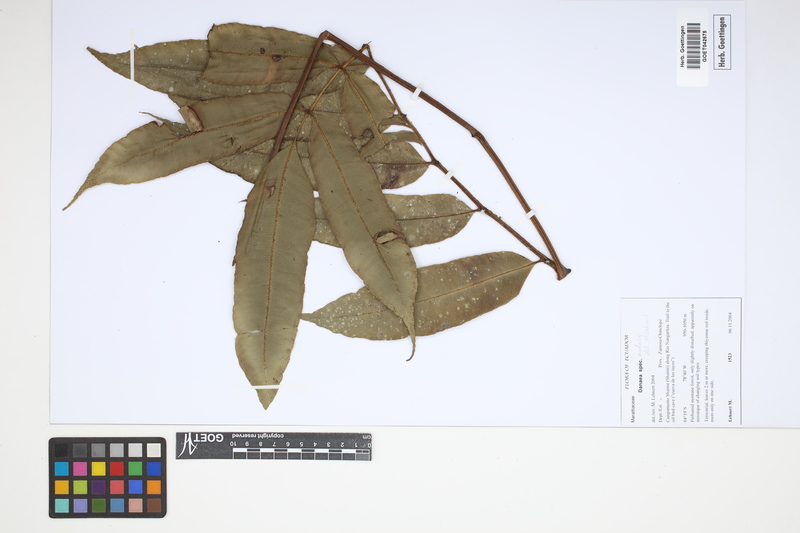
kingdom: Plantae
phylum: Tracheophyta
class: Polypodiopsida
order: Marattiales
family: Marattiaceae
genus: Danaea
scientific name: Danaea nodosa
